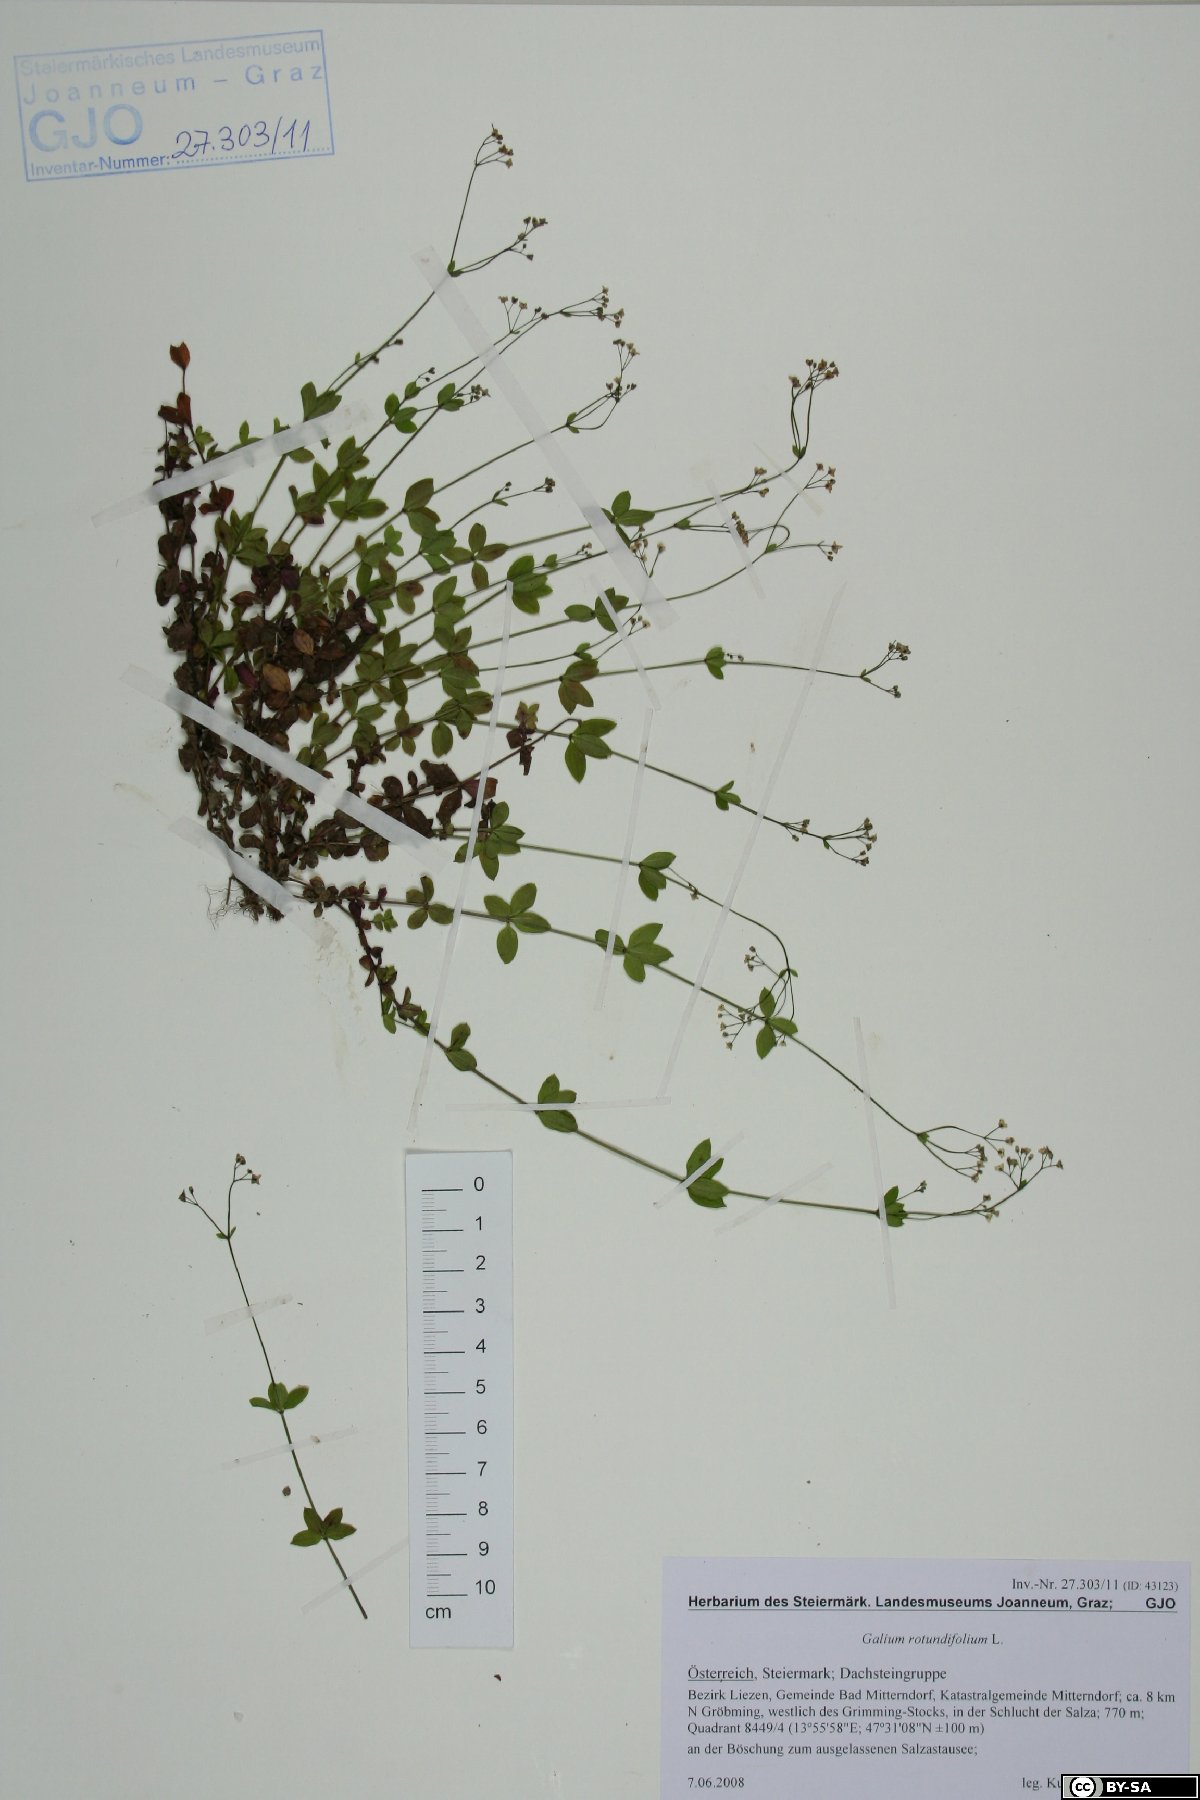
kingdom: Plantae
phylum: Tracheophyta
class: Magnoliopsida
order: Gentianales
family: Rubiaceae
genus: Galium
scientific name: Galium rotundifolium
